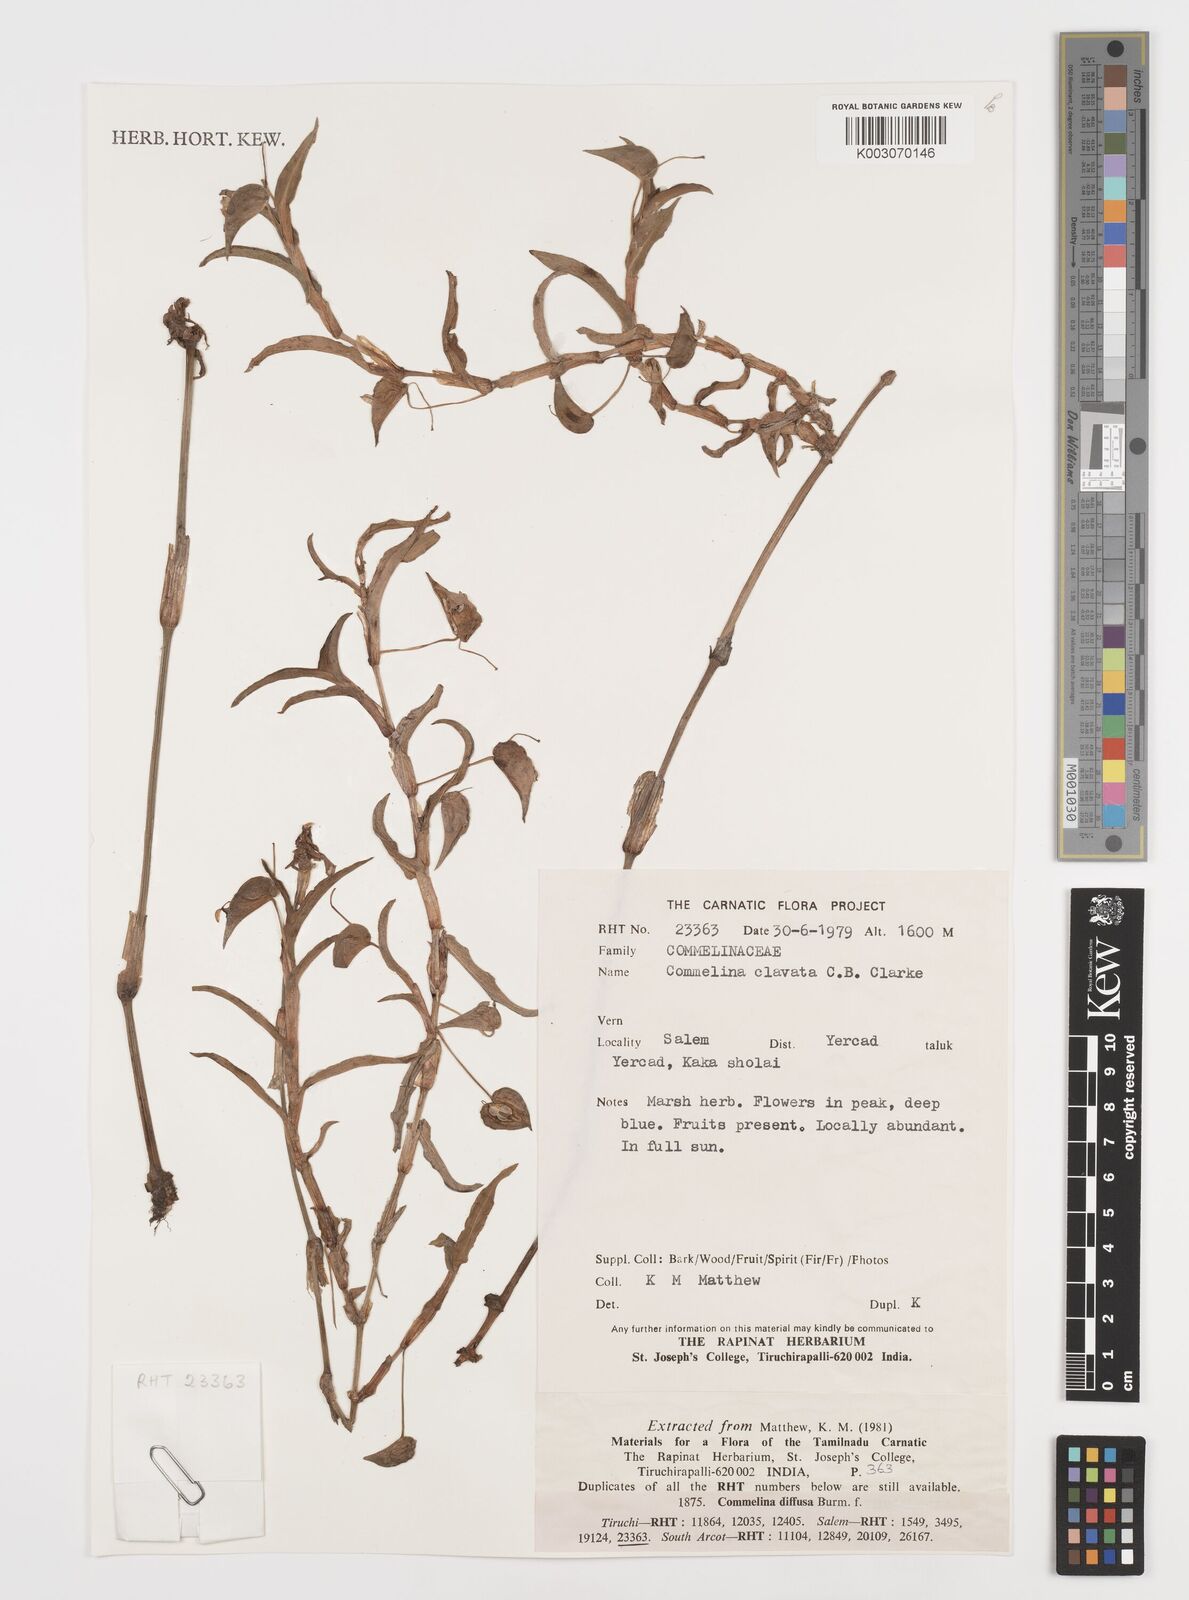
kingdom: Plantae
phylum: Tracheophyta
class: Liliopsida
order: Commelinales
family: Commelinaceae
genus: Commelina
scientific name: Commelina clavata
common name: Willow leaved dayflower
